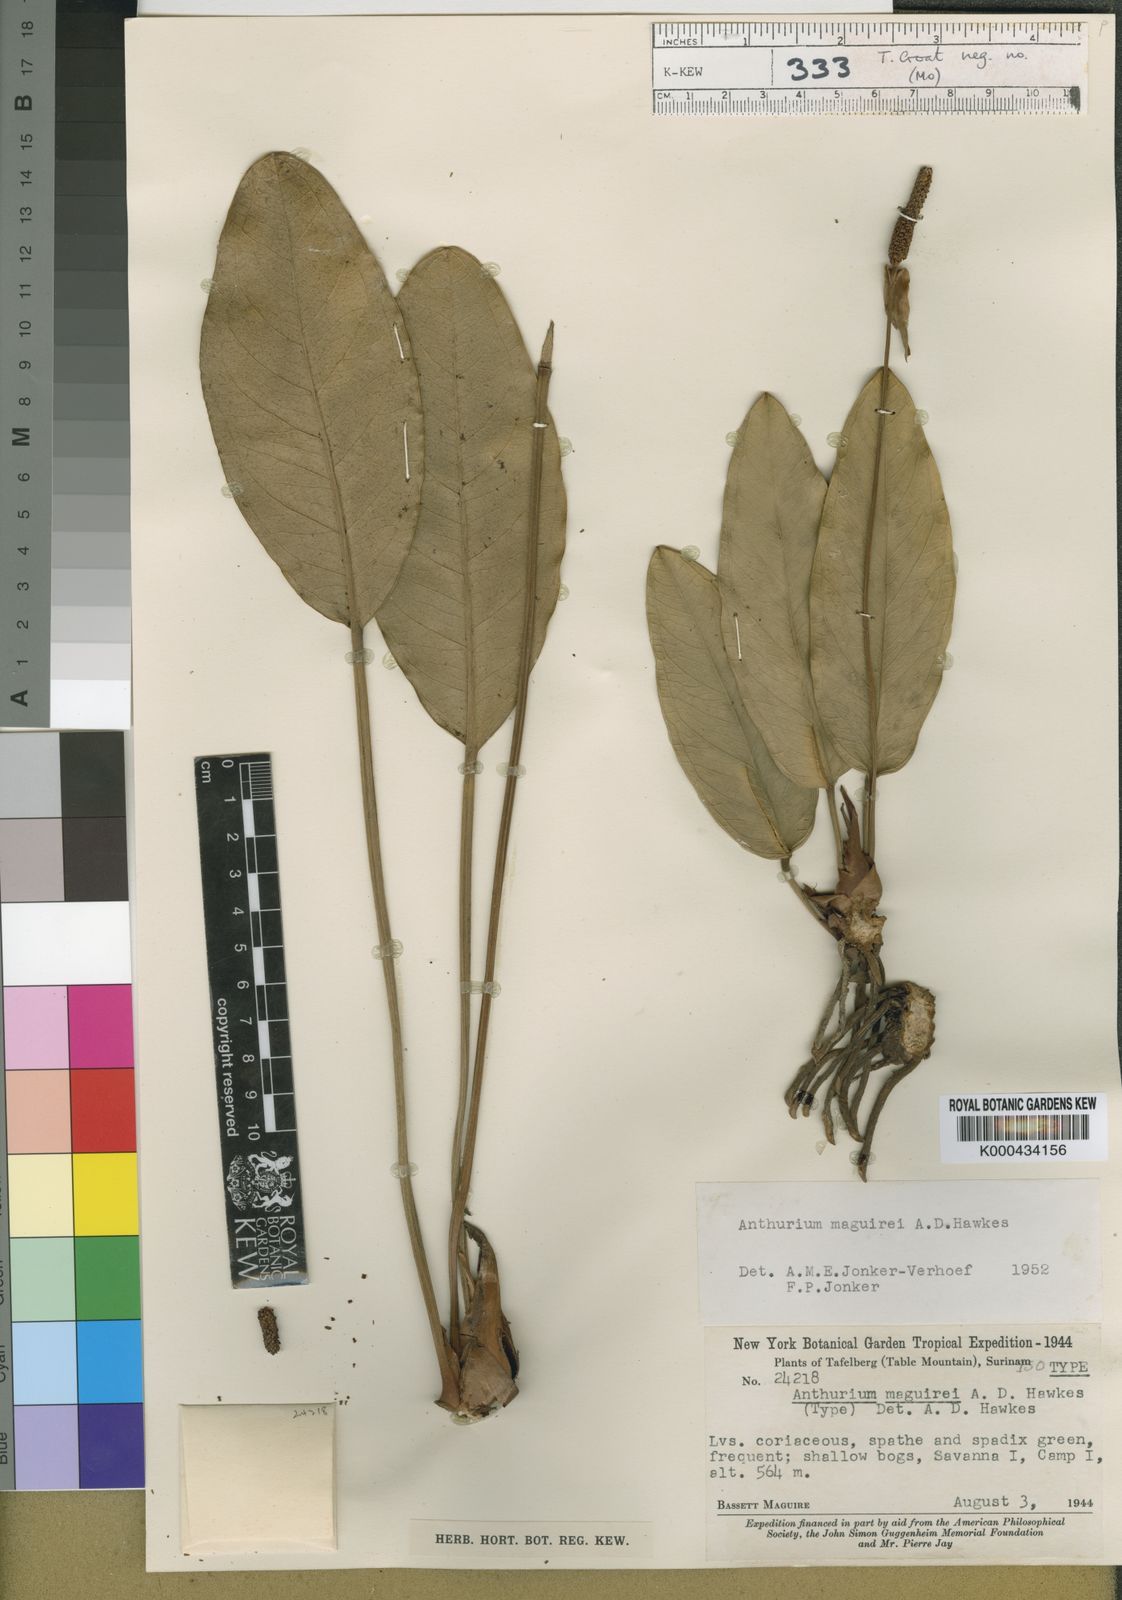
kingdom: Plantae
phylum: Tracheophyta
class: Liliopsida
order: Alismatales
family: Araceae
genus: Anthurium
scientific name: Anthurium maguirei
